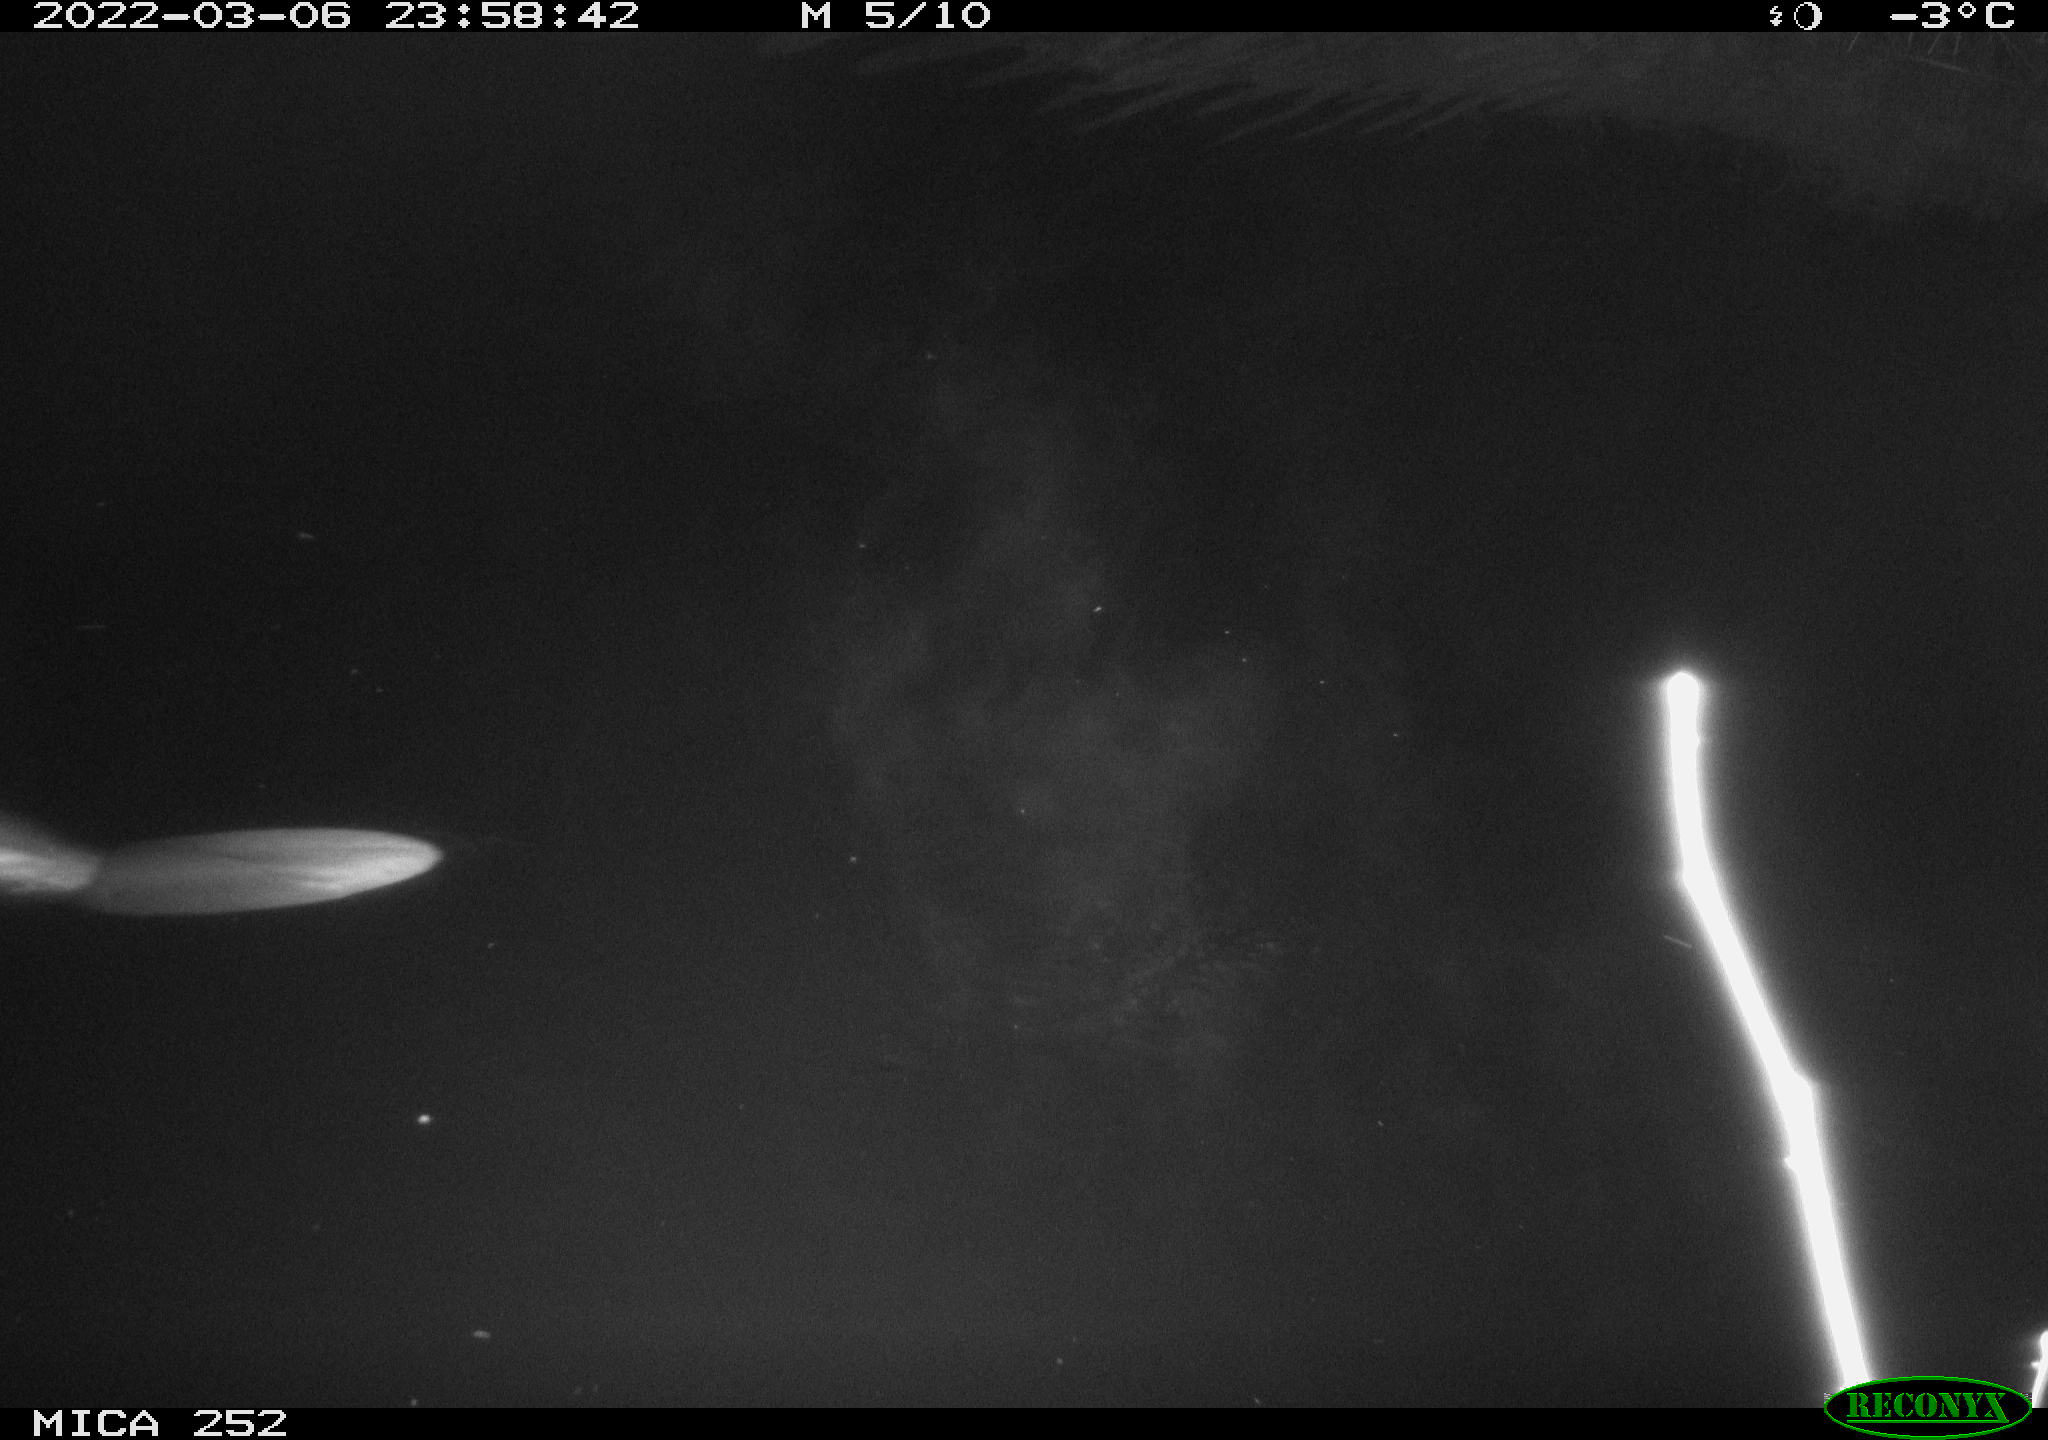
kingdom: Animalia
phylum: Chordata
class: Mammalia
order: Rodentia
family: Castoridae
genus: Castor
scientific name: Castor fiber
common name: Eurasian beaver
